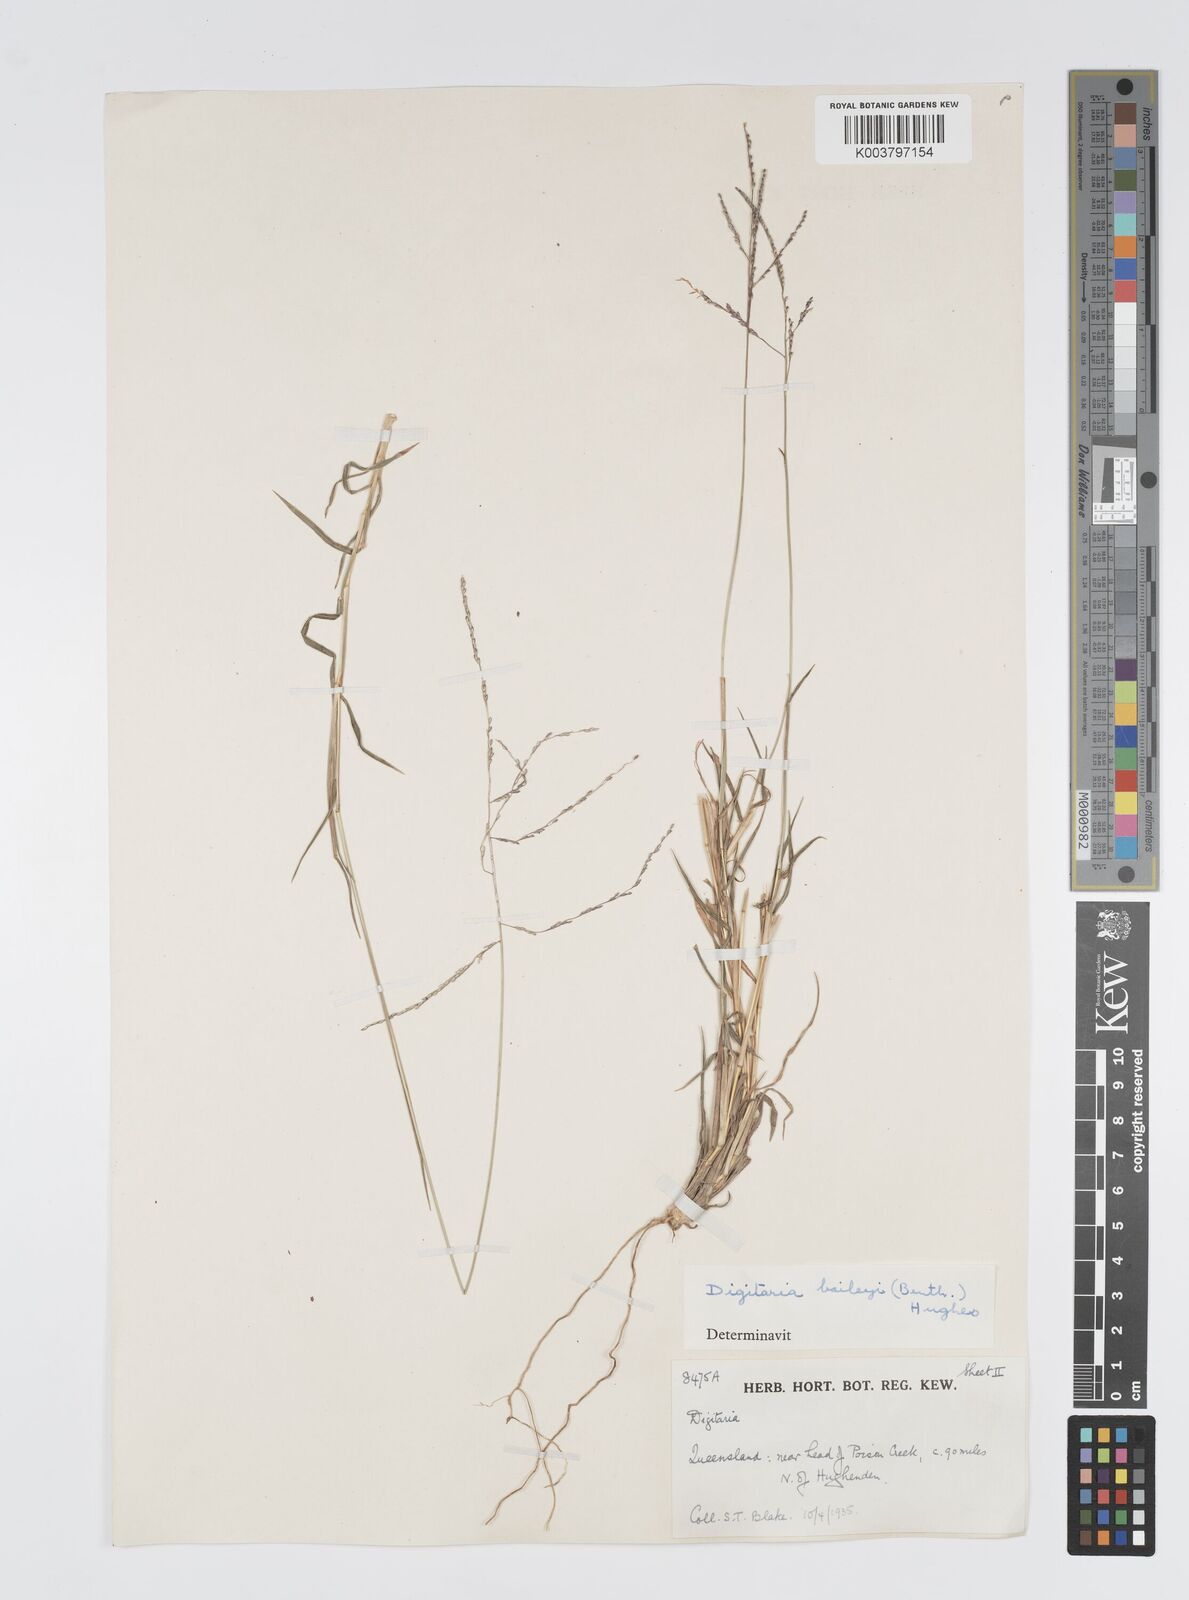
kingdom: Plantae
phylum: Tracheophyta
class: Liliopsida
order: Poales
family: Poaceae
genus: Digitaria
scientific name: Digitaria spec
